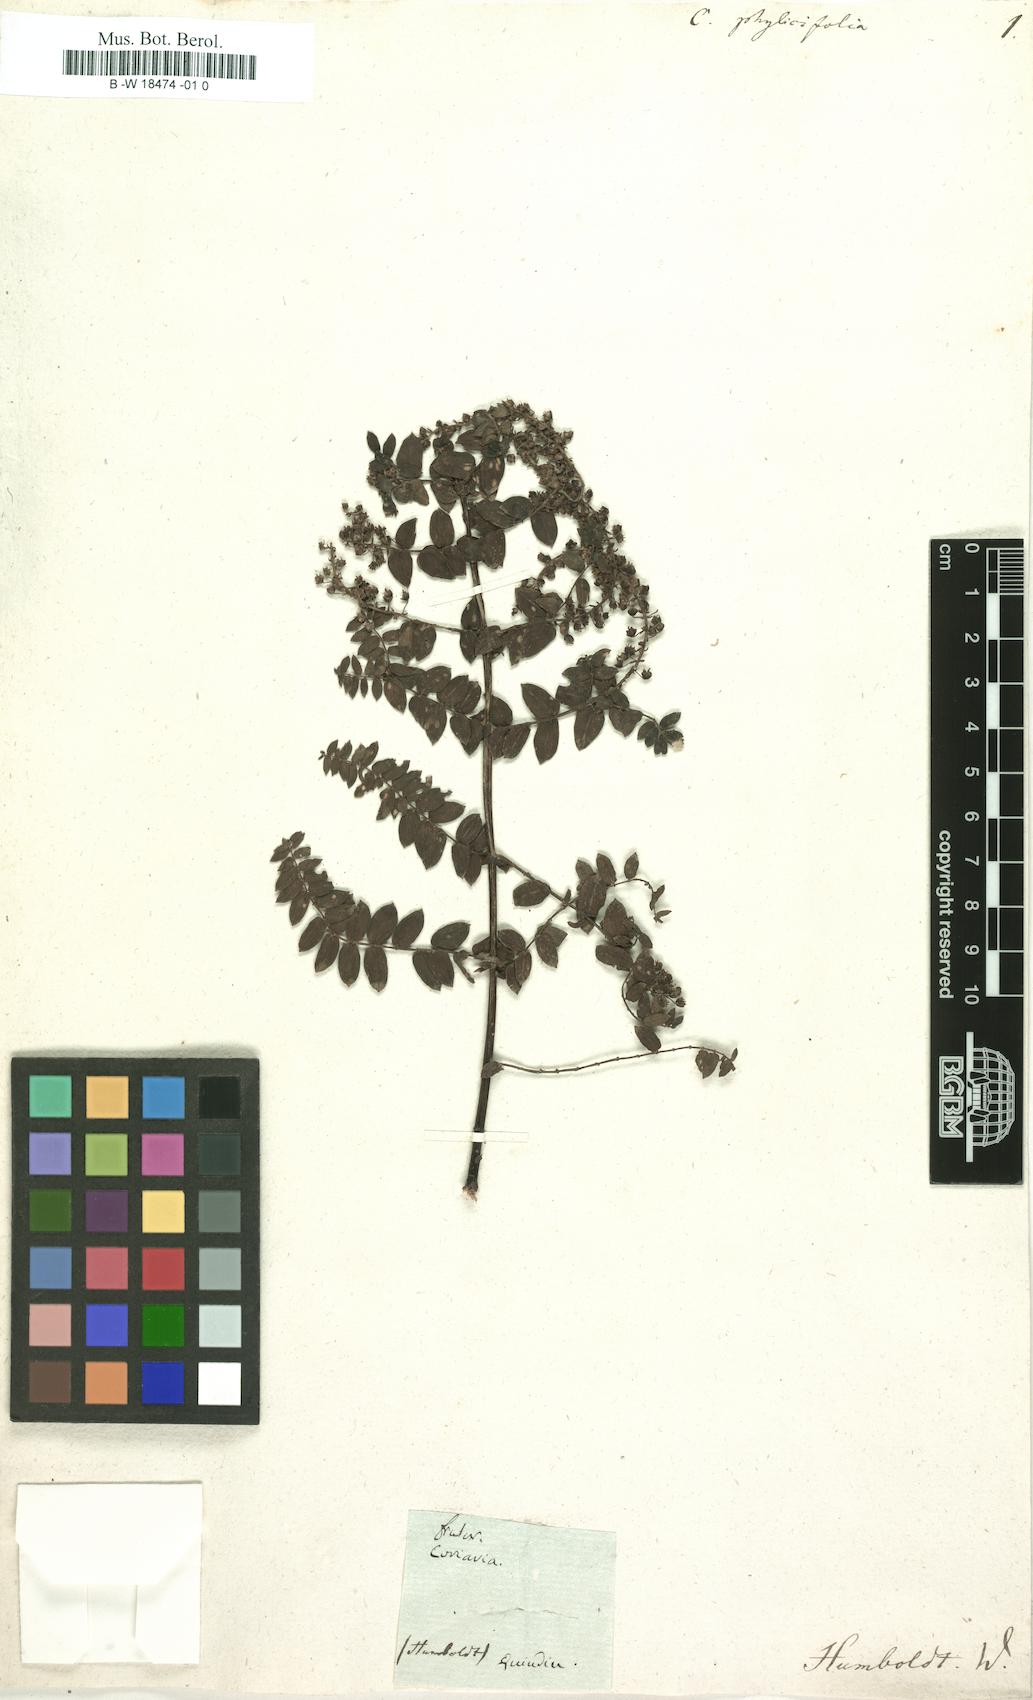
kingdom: Plantae
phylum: Tracheophyta
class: Magnoliopsida
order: Cucurbitales
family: Coriariaceae
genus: Coriaria
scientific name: Coriaria microphylla
